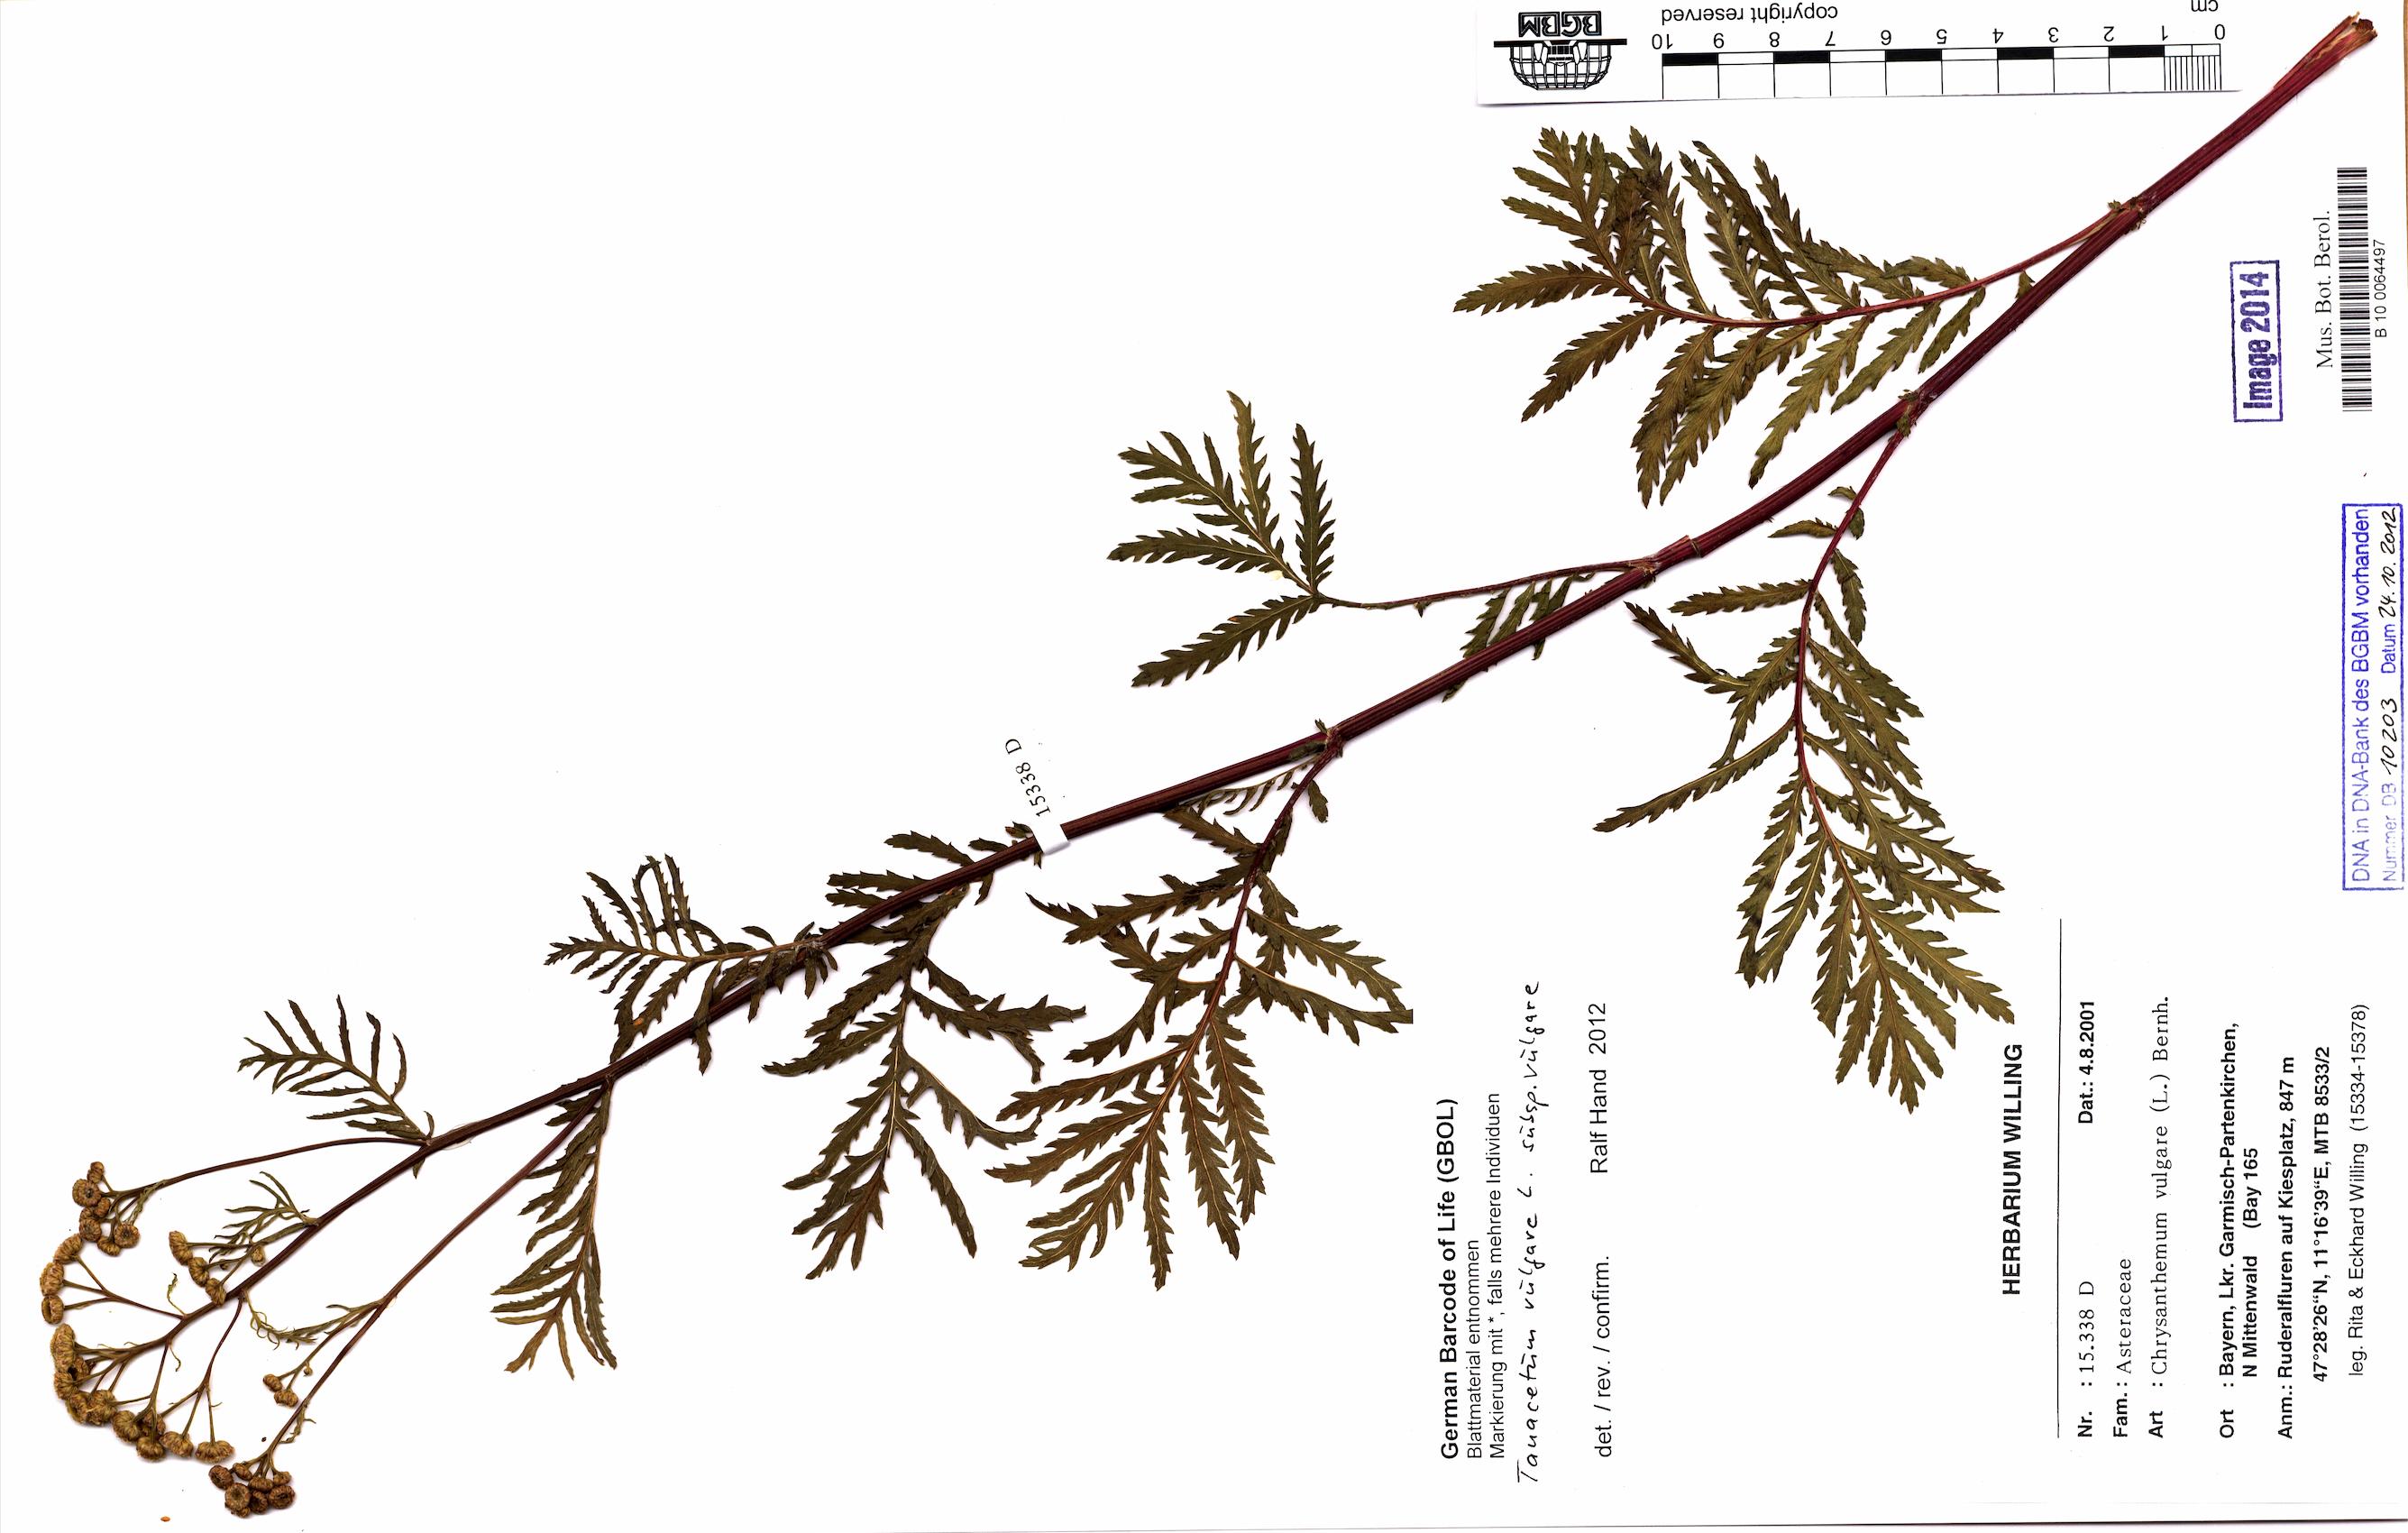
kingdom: Plantae
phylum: Tracheophyta
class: Magnoliopsida
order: Asterales
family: Asteraceae
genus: Tanacetum
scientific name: Tanacetum vulgare
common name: Common tansy
